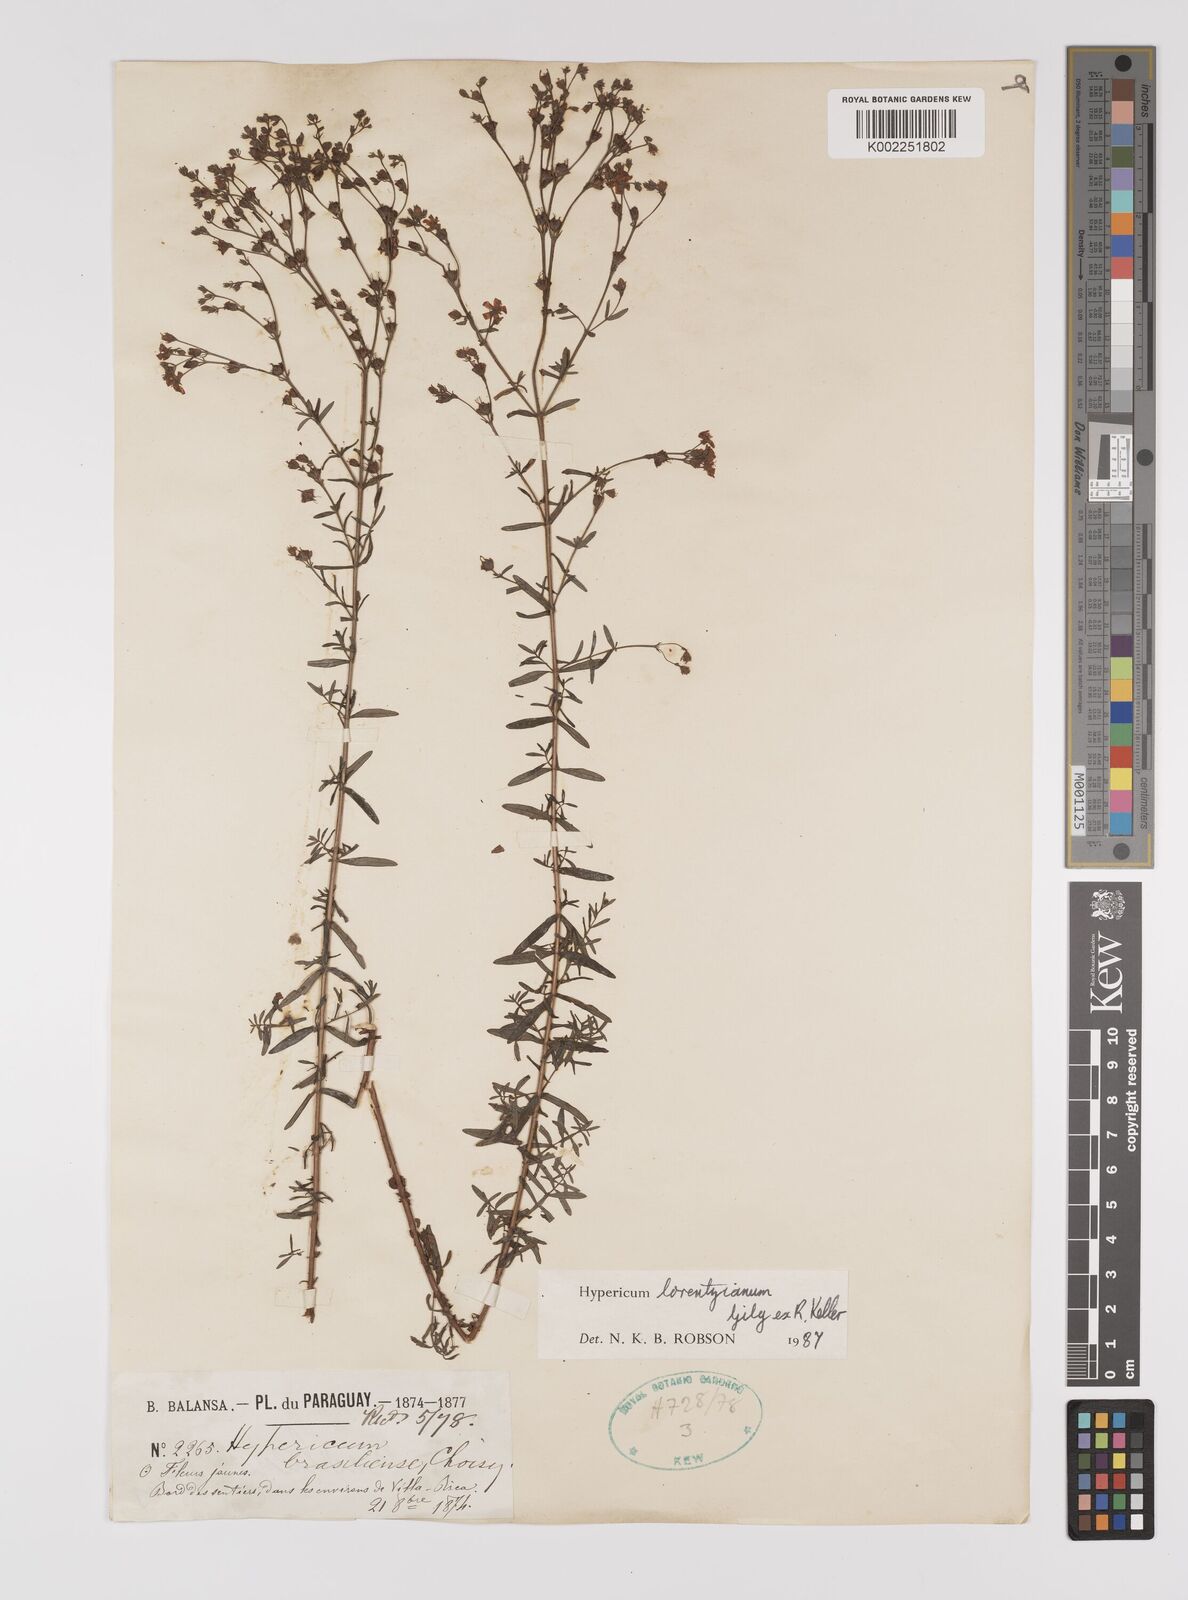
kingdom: Plantae
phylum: Tracheophyta
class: Magnoliopsida
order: Malpighiales
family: Hypericaceae
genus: Hypericum
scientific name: Hypericum lorentzianum
